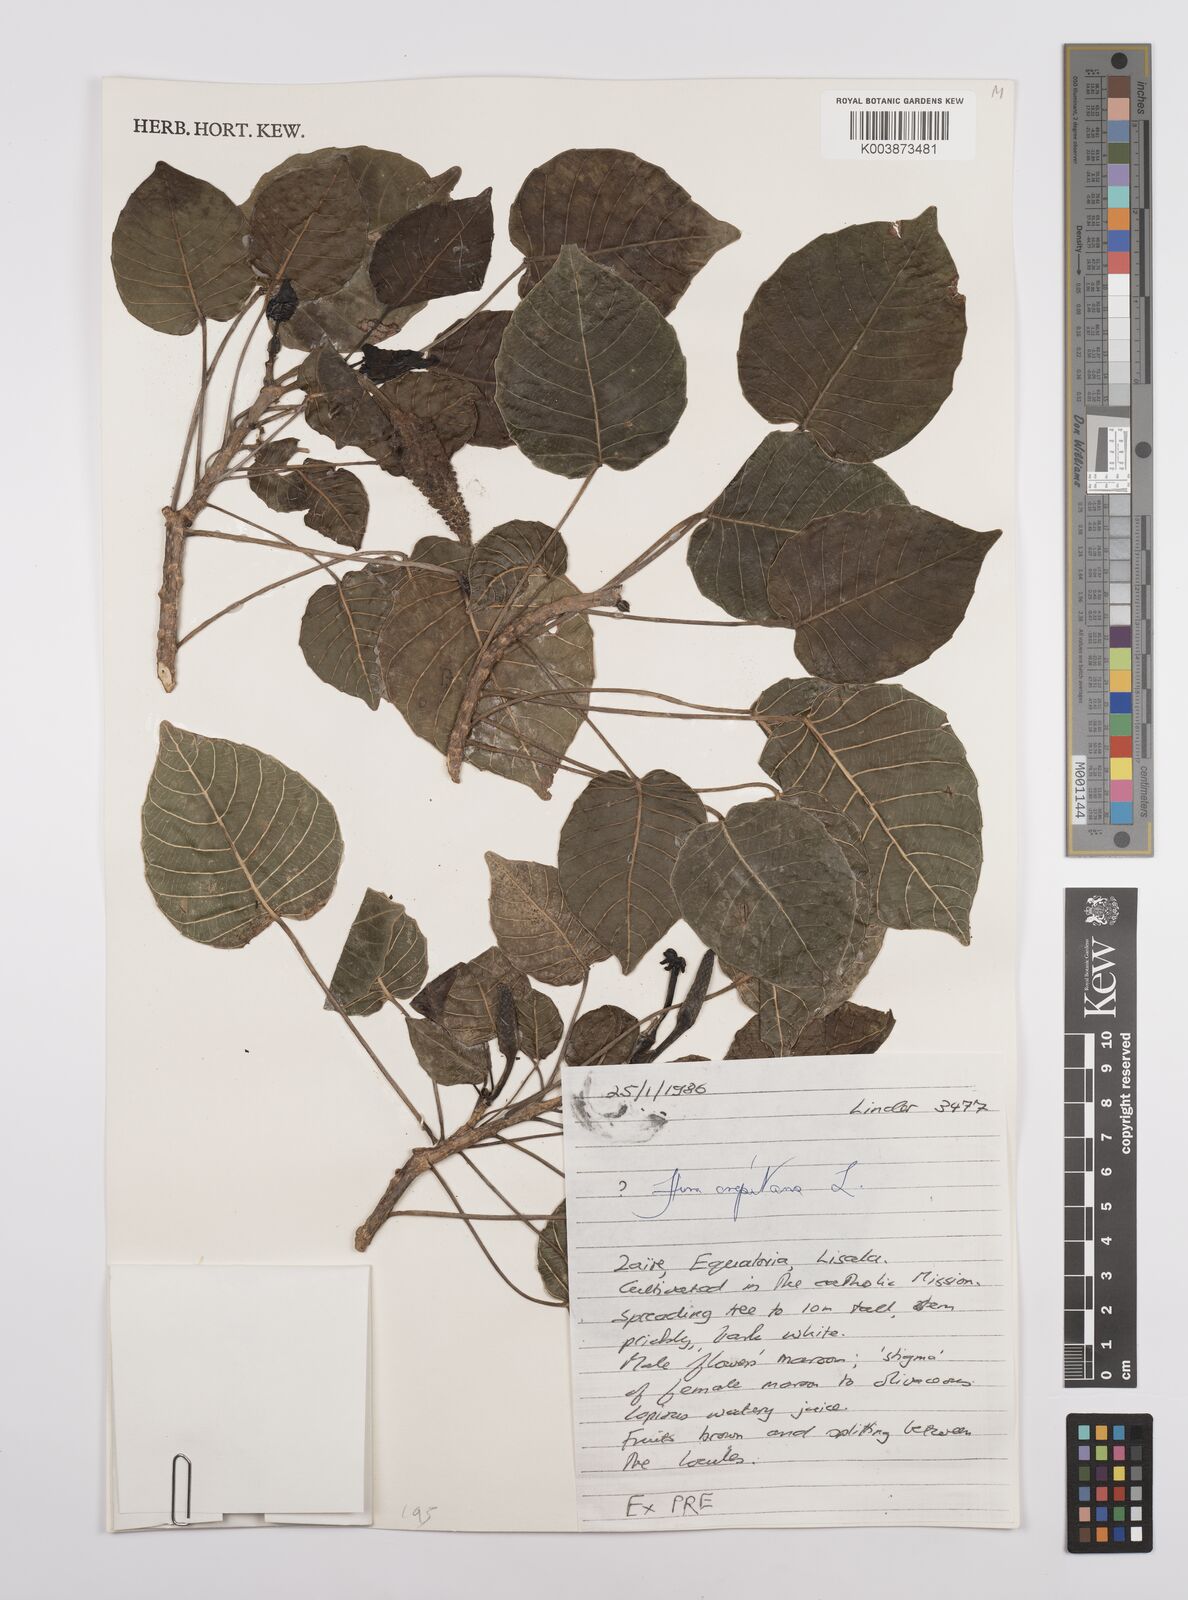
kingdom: Plantae
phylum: Tracheophyta
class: Magnoliopsida
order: Malpighiales
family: Euphorbiaceae
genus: Hura
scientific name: Hura crepitans
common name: Sandboxtree
